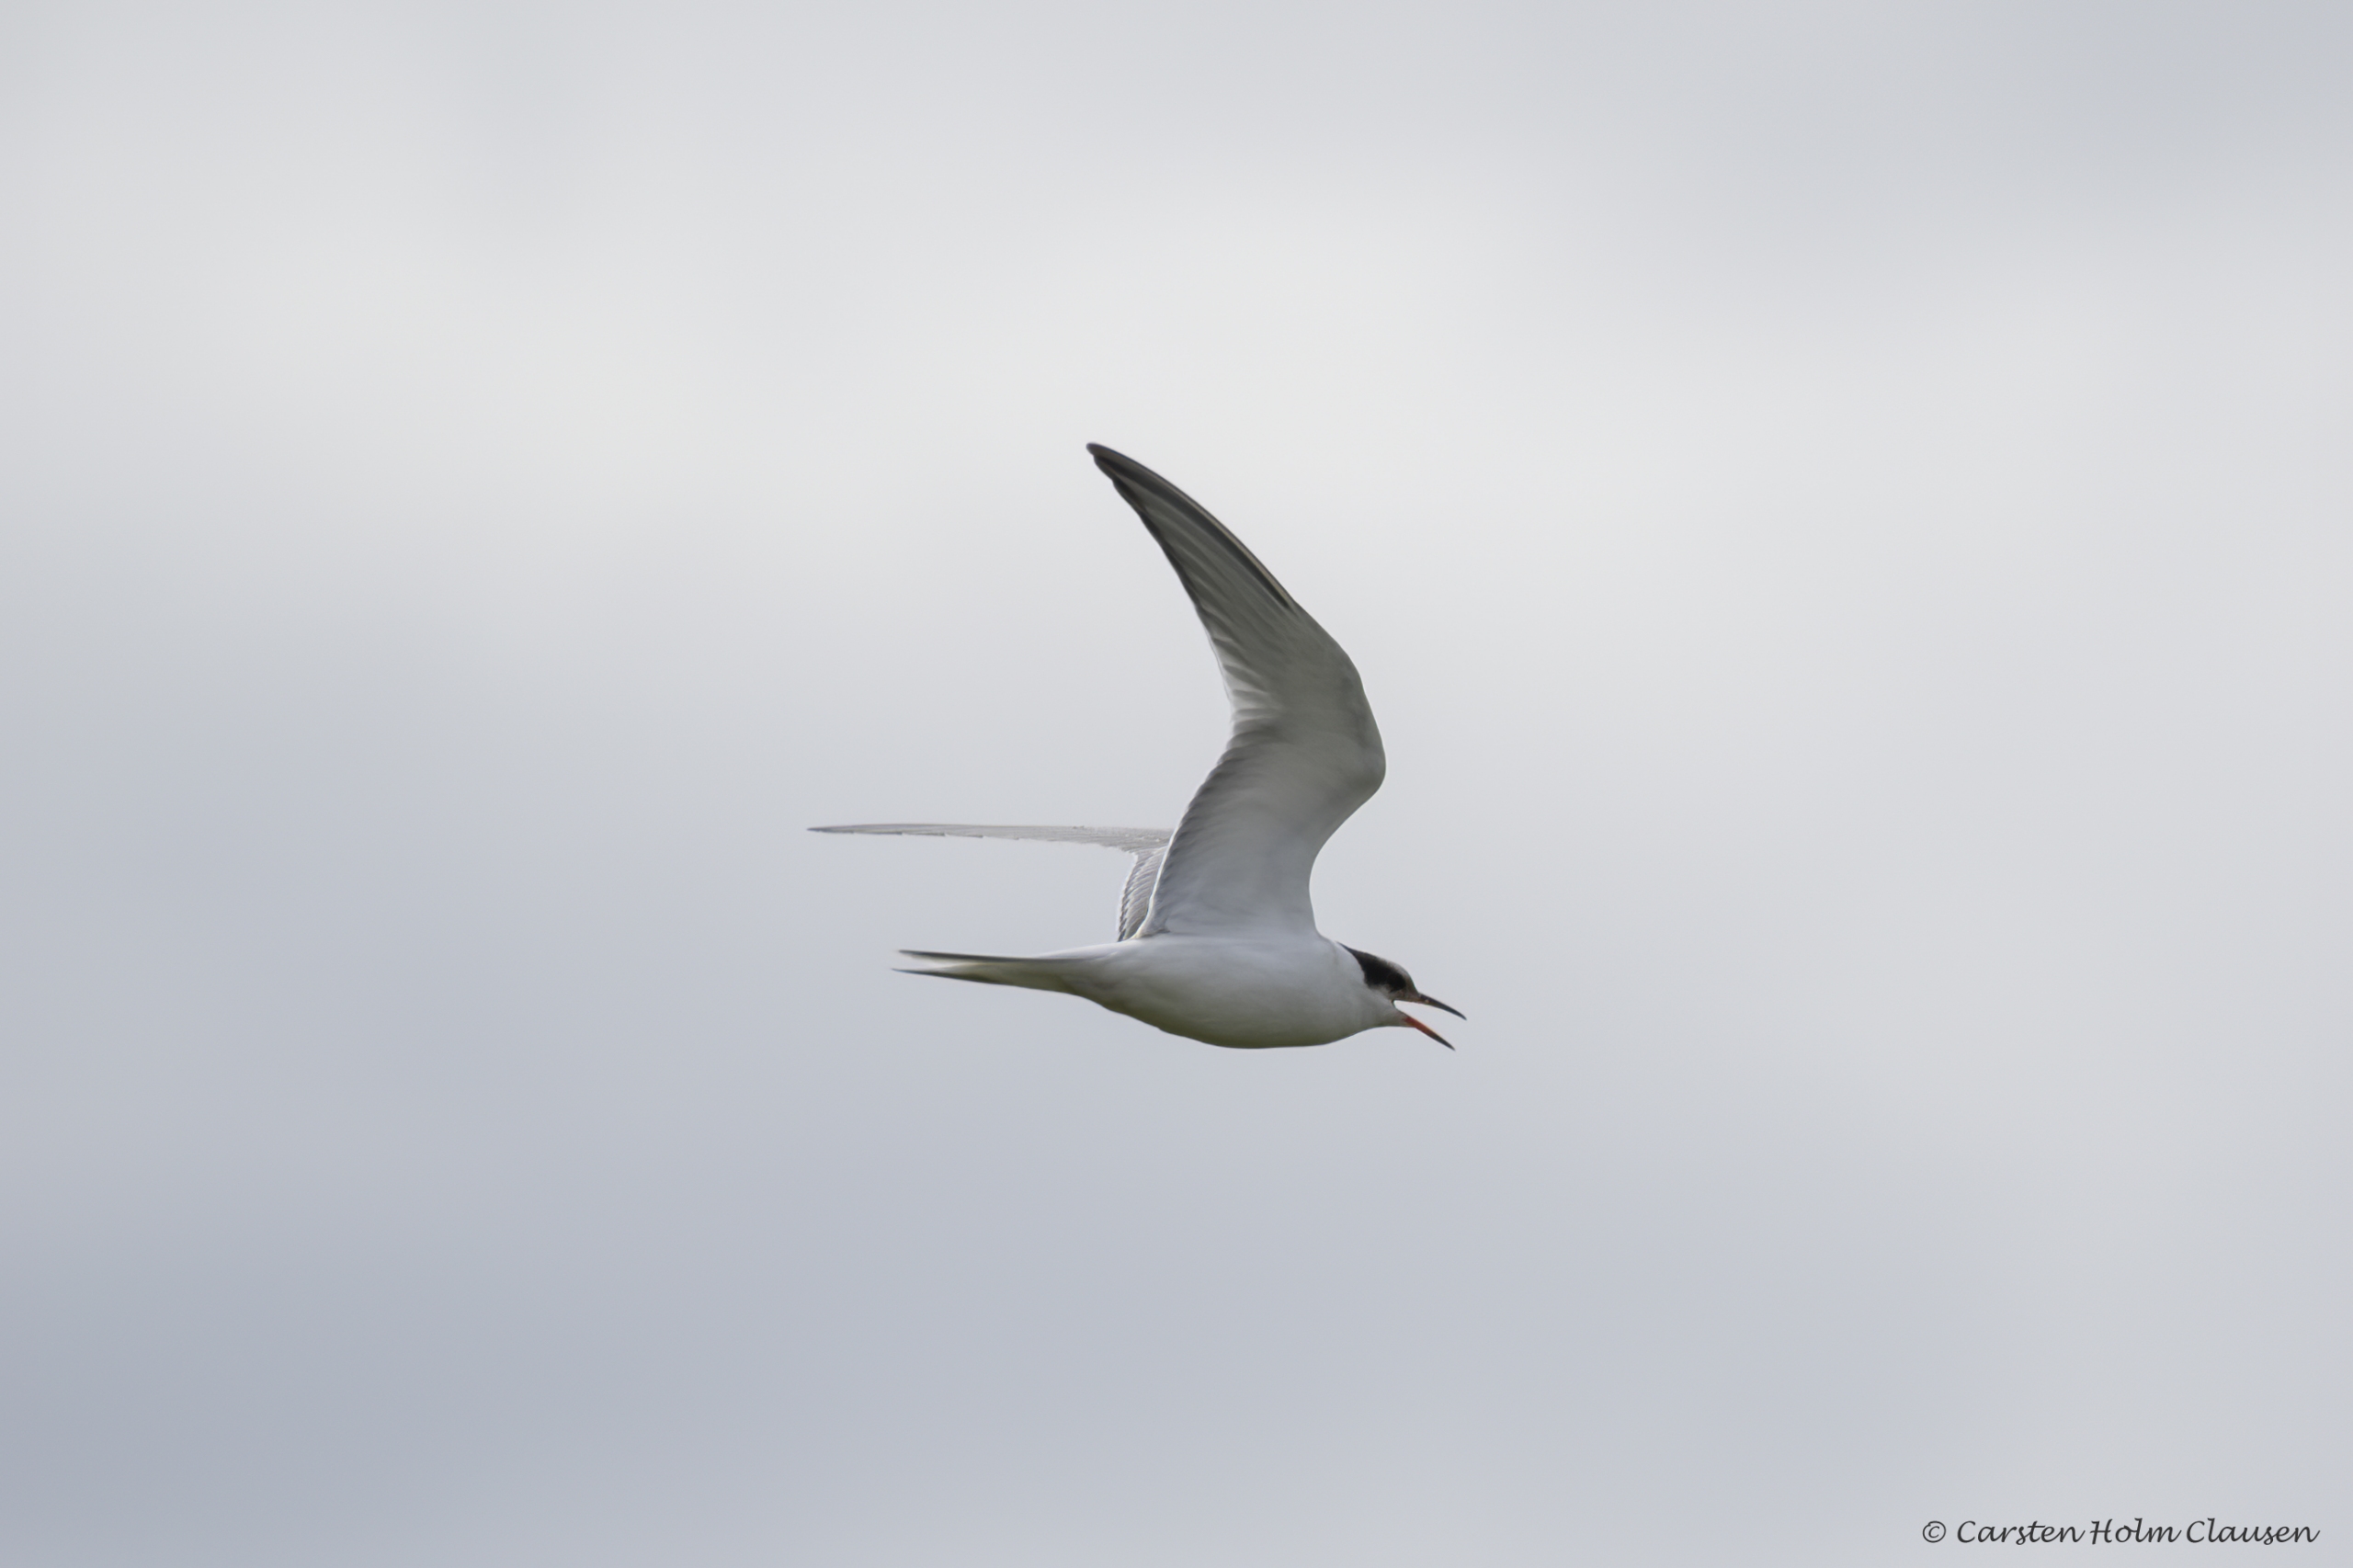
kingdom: Animalia
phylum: Chordata
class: Aves
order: Charadriiformes
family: Laridae
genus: Sterna
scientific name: Sterna hirundo
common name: Fjordterne
